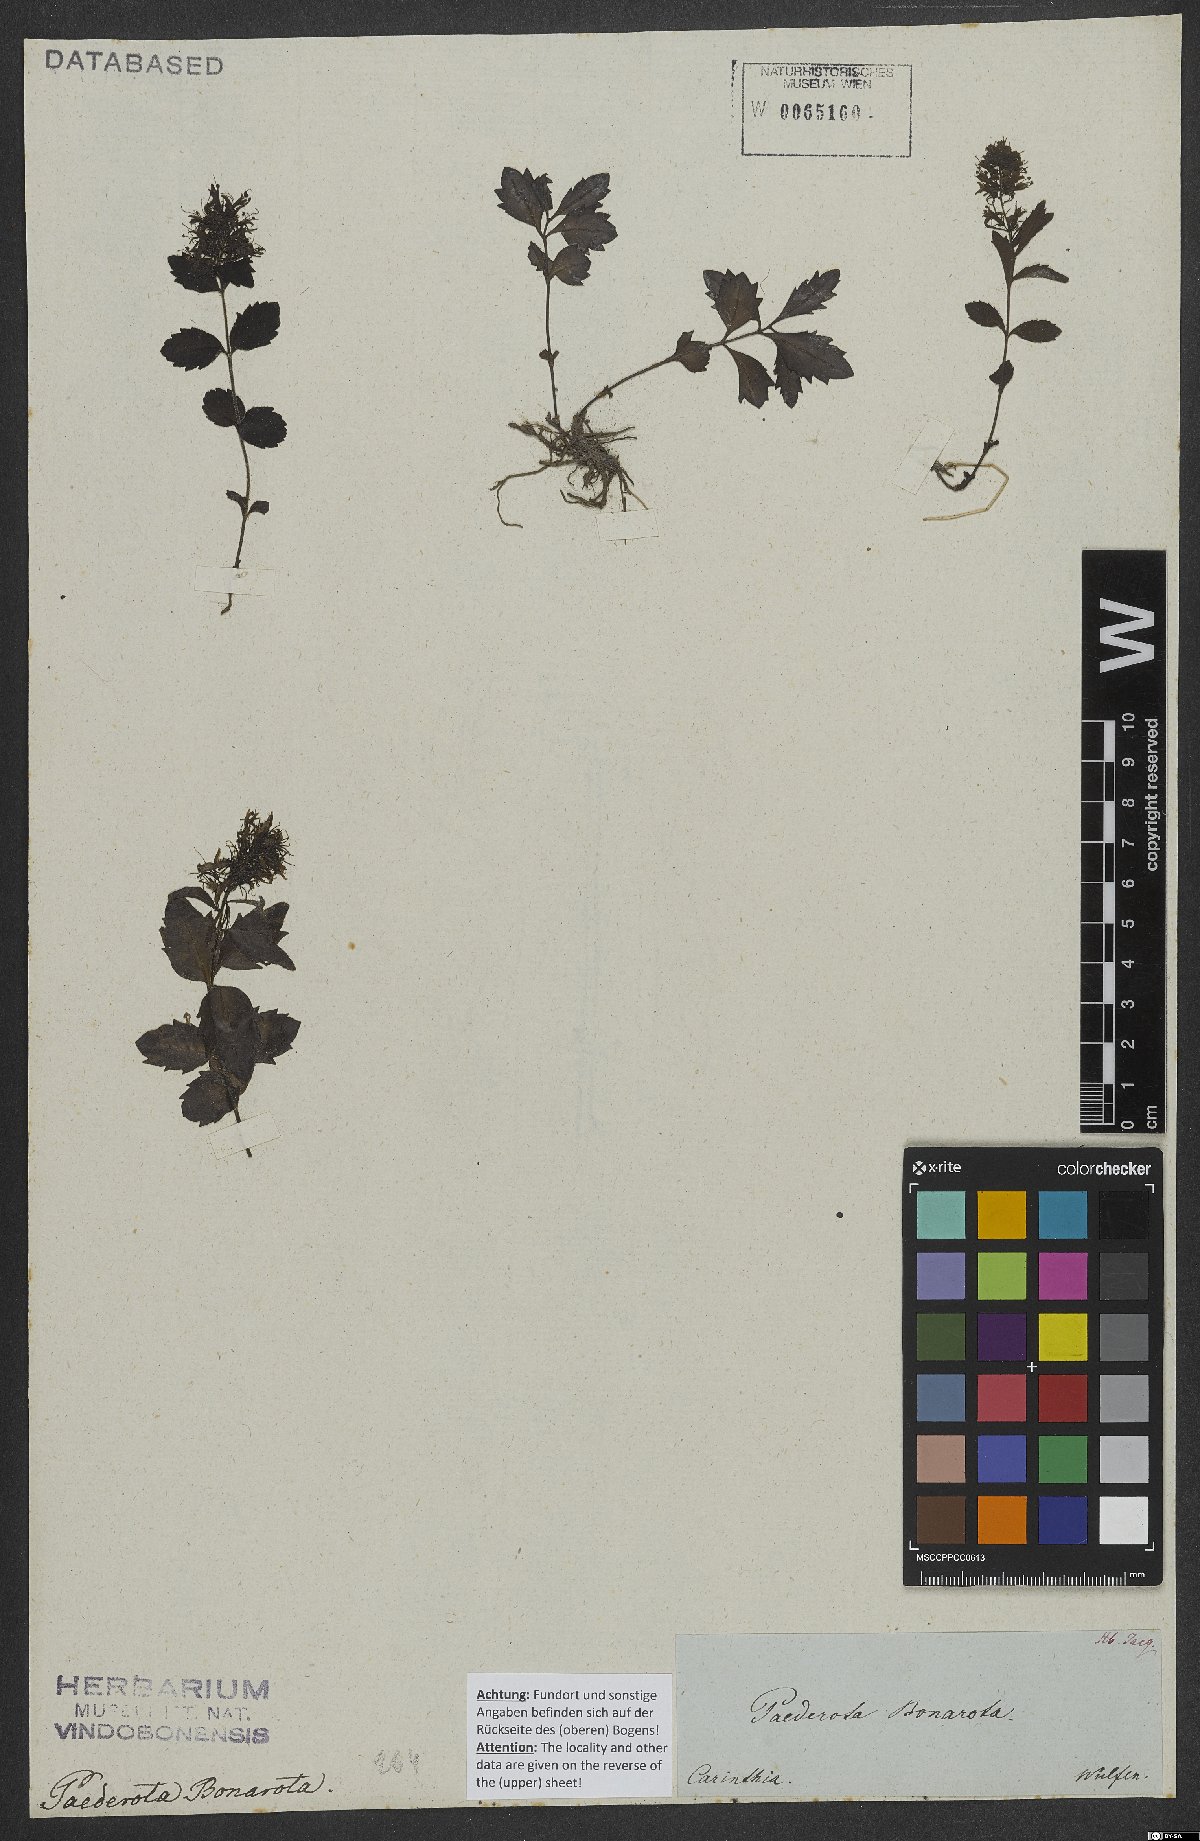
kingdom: Plantae
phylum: Tracheophyta
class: Magnoliopsida
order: Lamiales
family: Plantaginaceae
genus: Paederota
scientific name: Paederota bonarota
